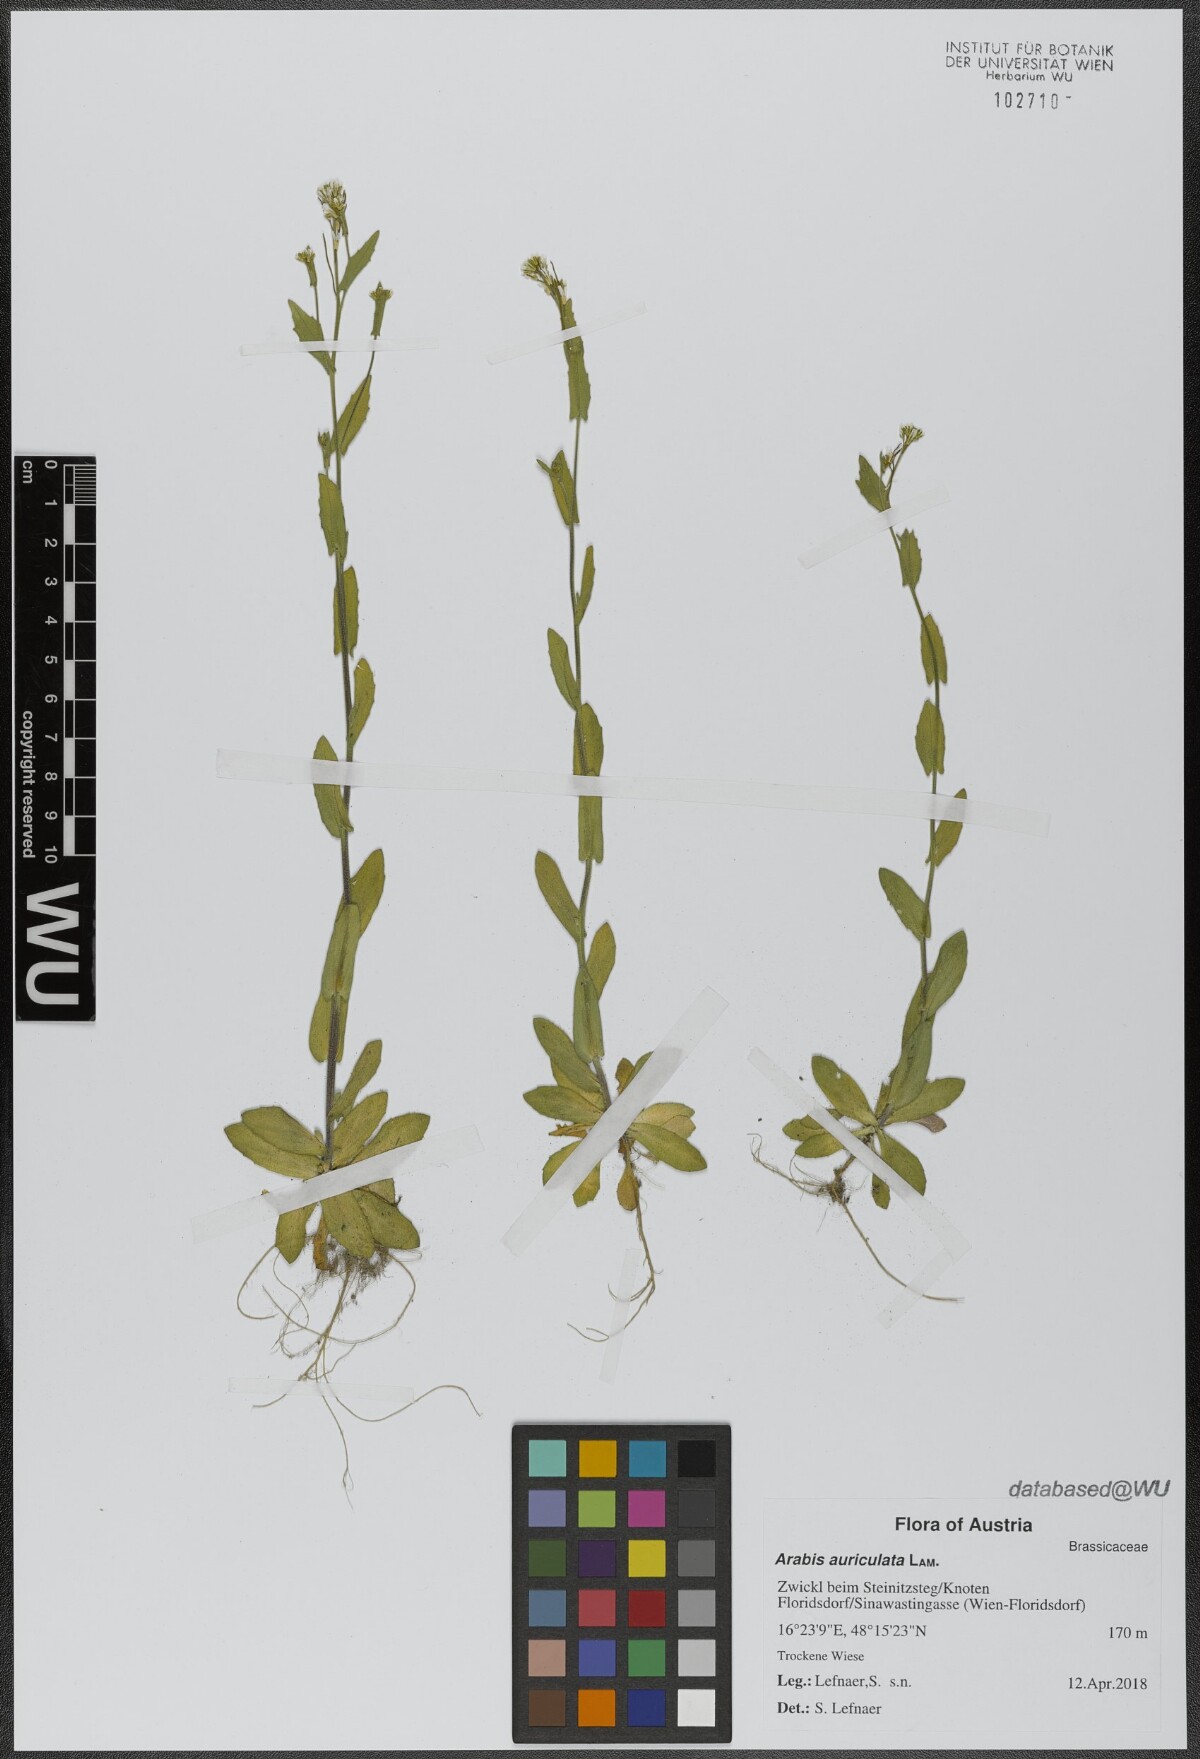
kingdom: Plantae
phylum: Tracheophyta
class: Magnoliopsida
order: Brassicales
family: Brassicaceae
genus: Arabis
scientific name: Arabis auriculata
